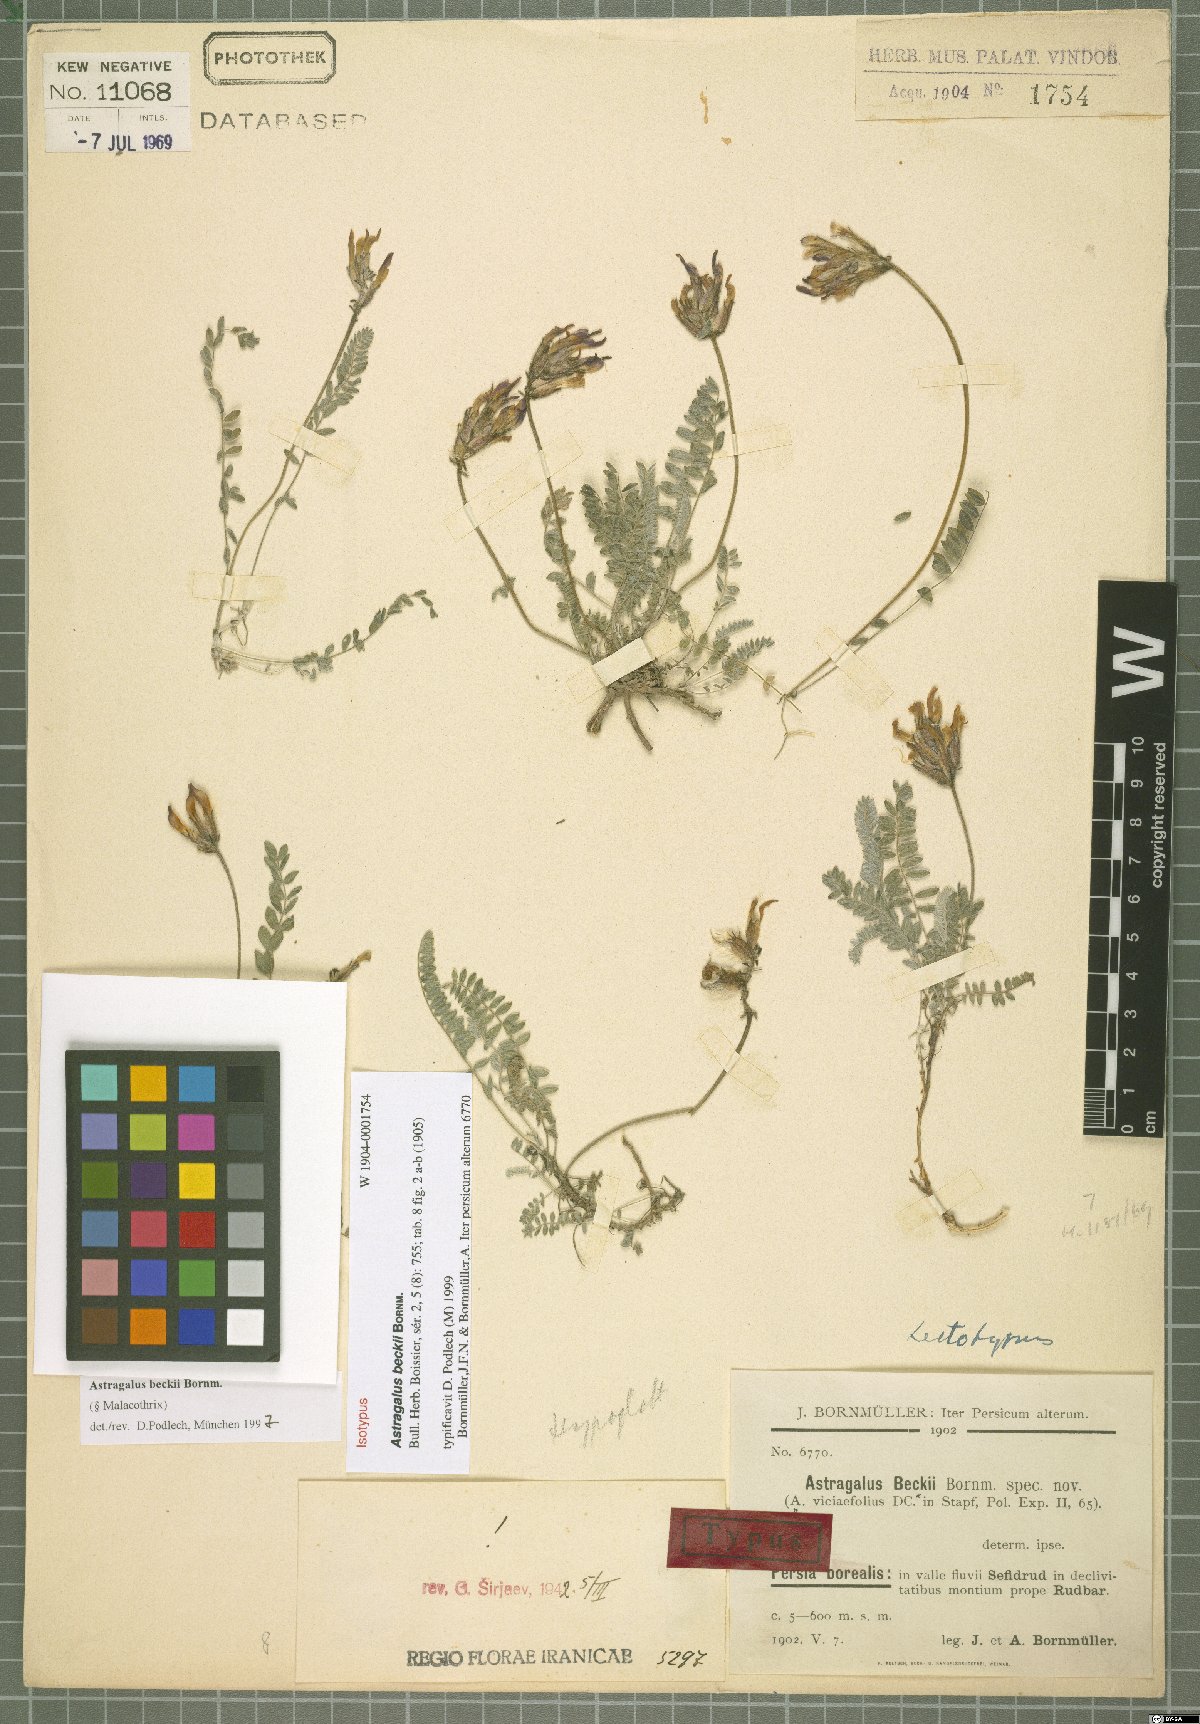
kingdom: Plantae
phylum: Tracheophyta
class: Magnoliopsida
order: Fabales
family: Fabaceae
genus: Astragalus
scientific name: Astragalus beckii
